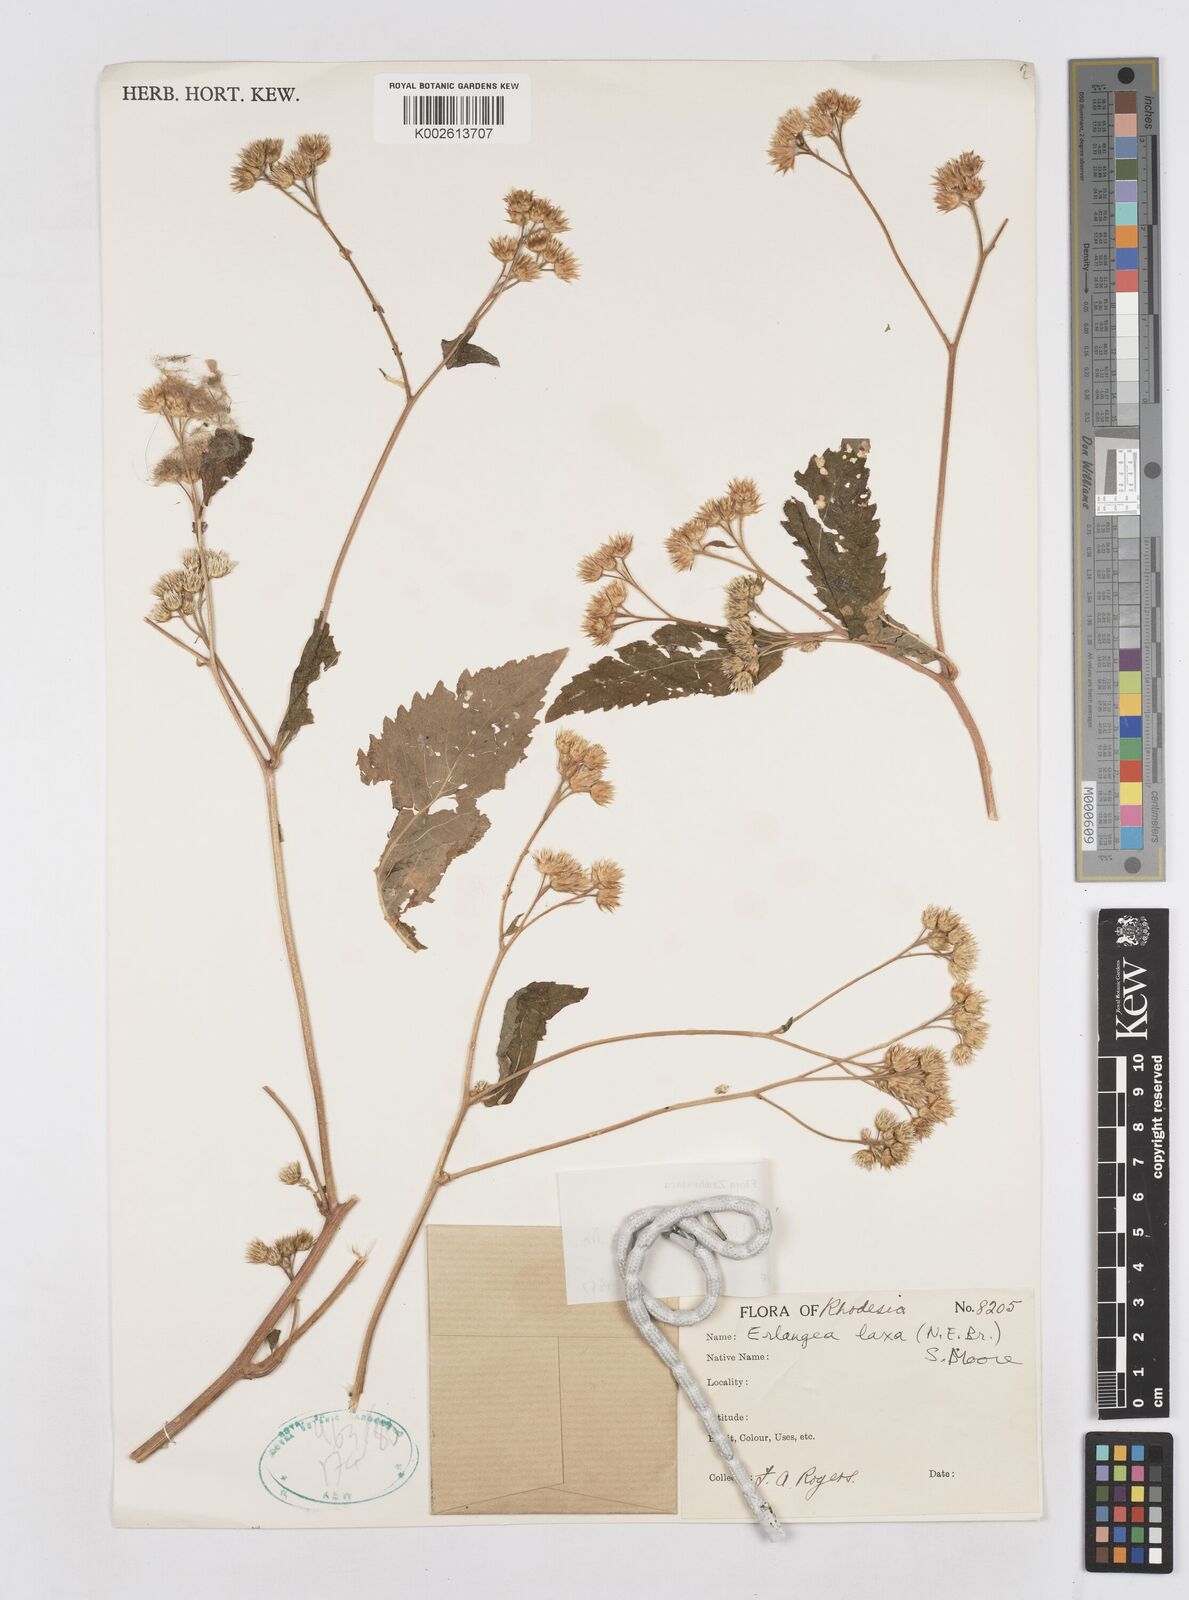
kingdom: Plantae
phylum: Tracheophyta
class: Magnoliopsida
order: Asterales
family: Asteraceae
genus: Bothriocline
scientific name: Bothriocline laxa
